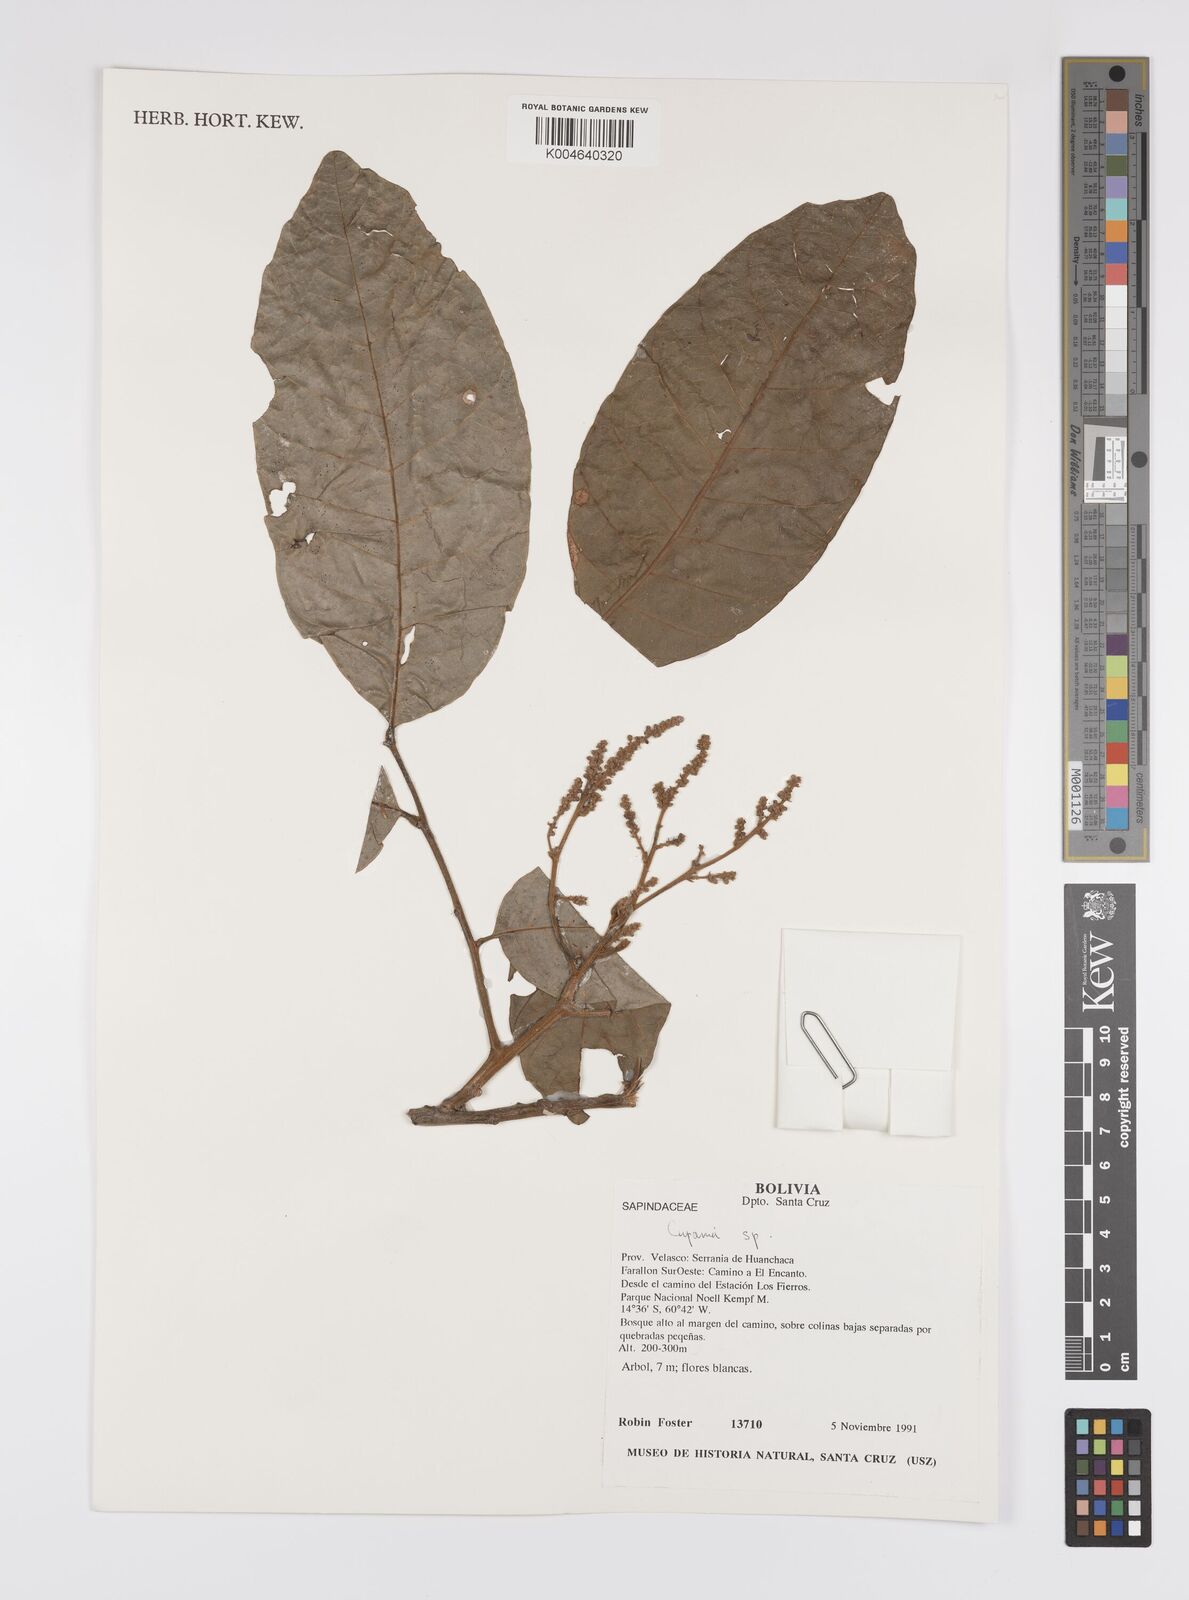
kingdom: Plantae
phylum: Tracheophyta
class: Magnoliopsida
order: Sapindales
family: Sapindaceae
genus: Cupania
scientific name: Cupania
